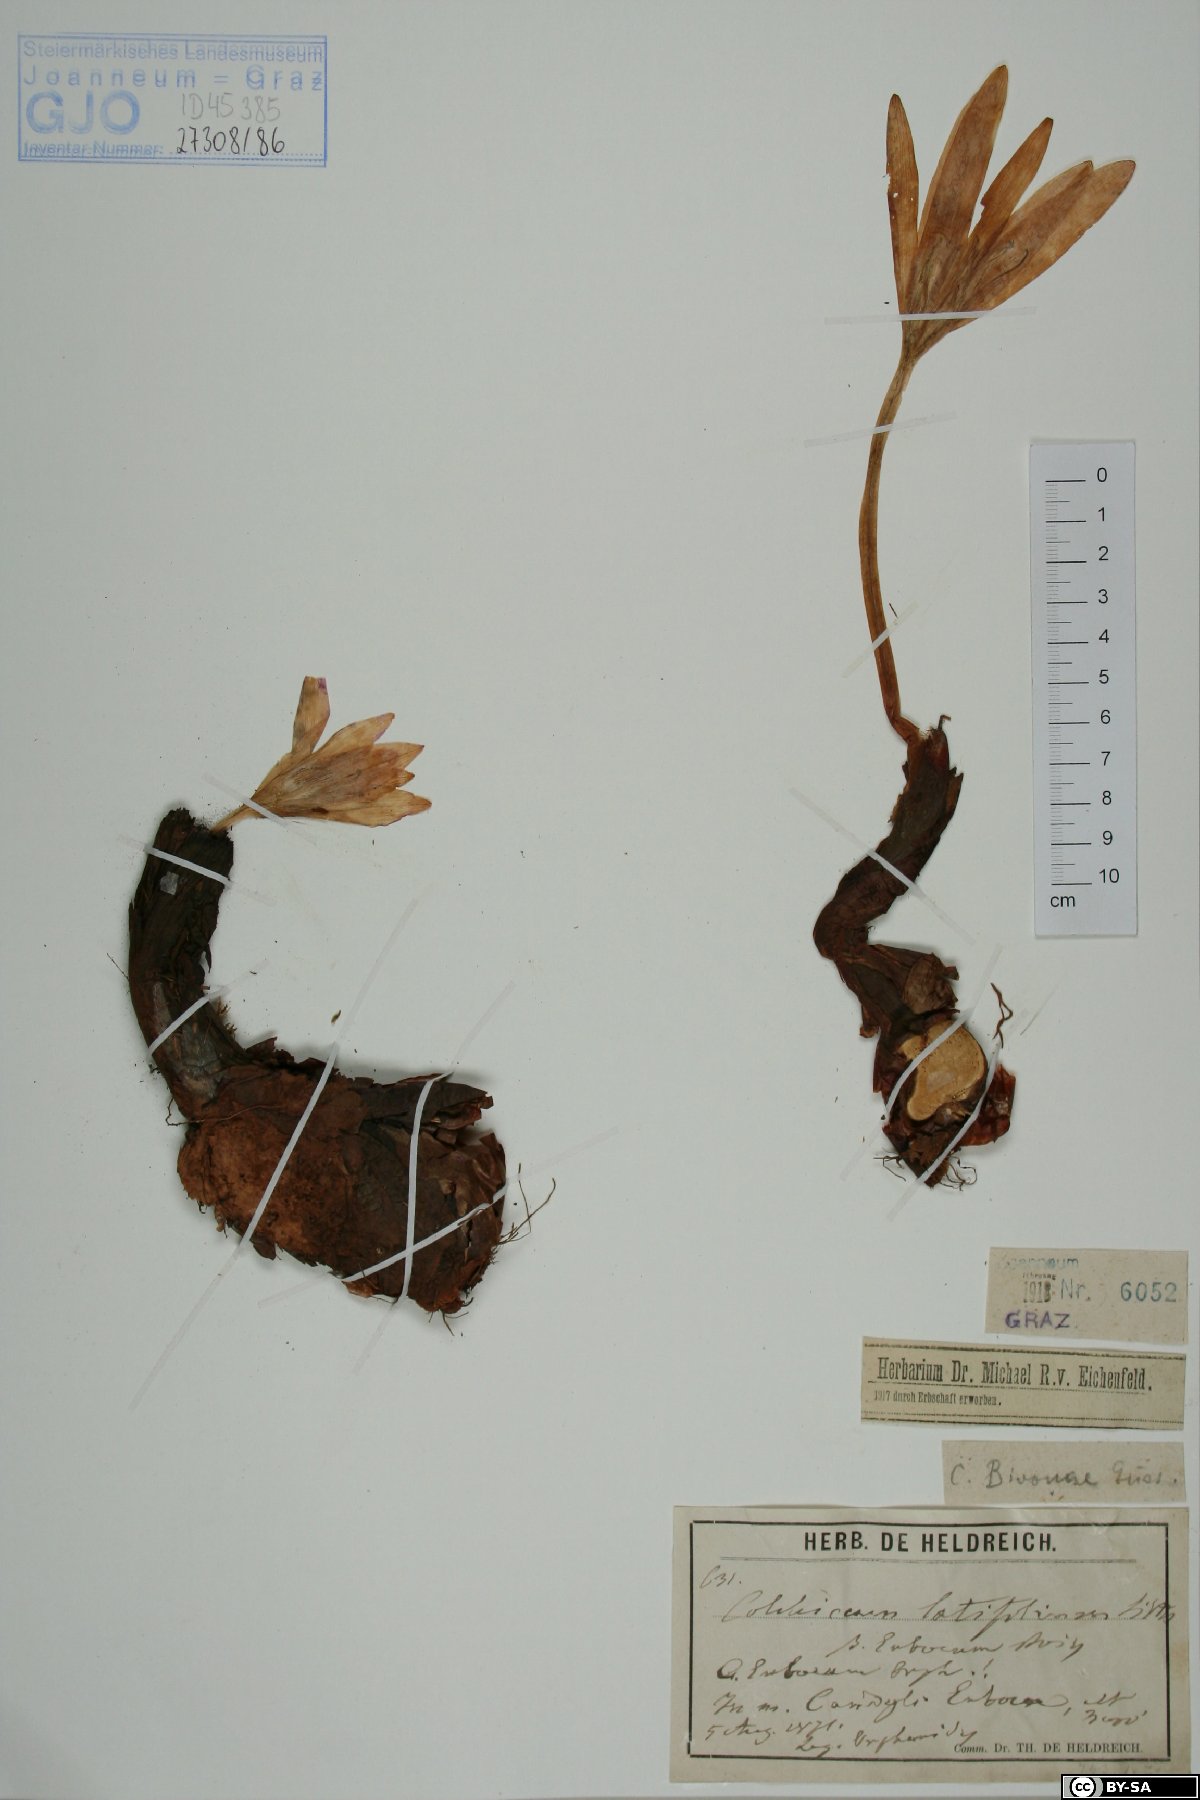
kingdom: Plantae
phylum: Tracheophyta
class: Liliopsida
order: Liliales
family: Colchicaceae
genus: Colchicum
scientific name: Colchicum euboeum
